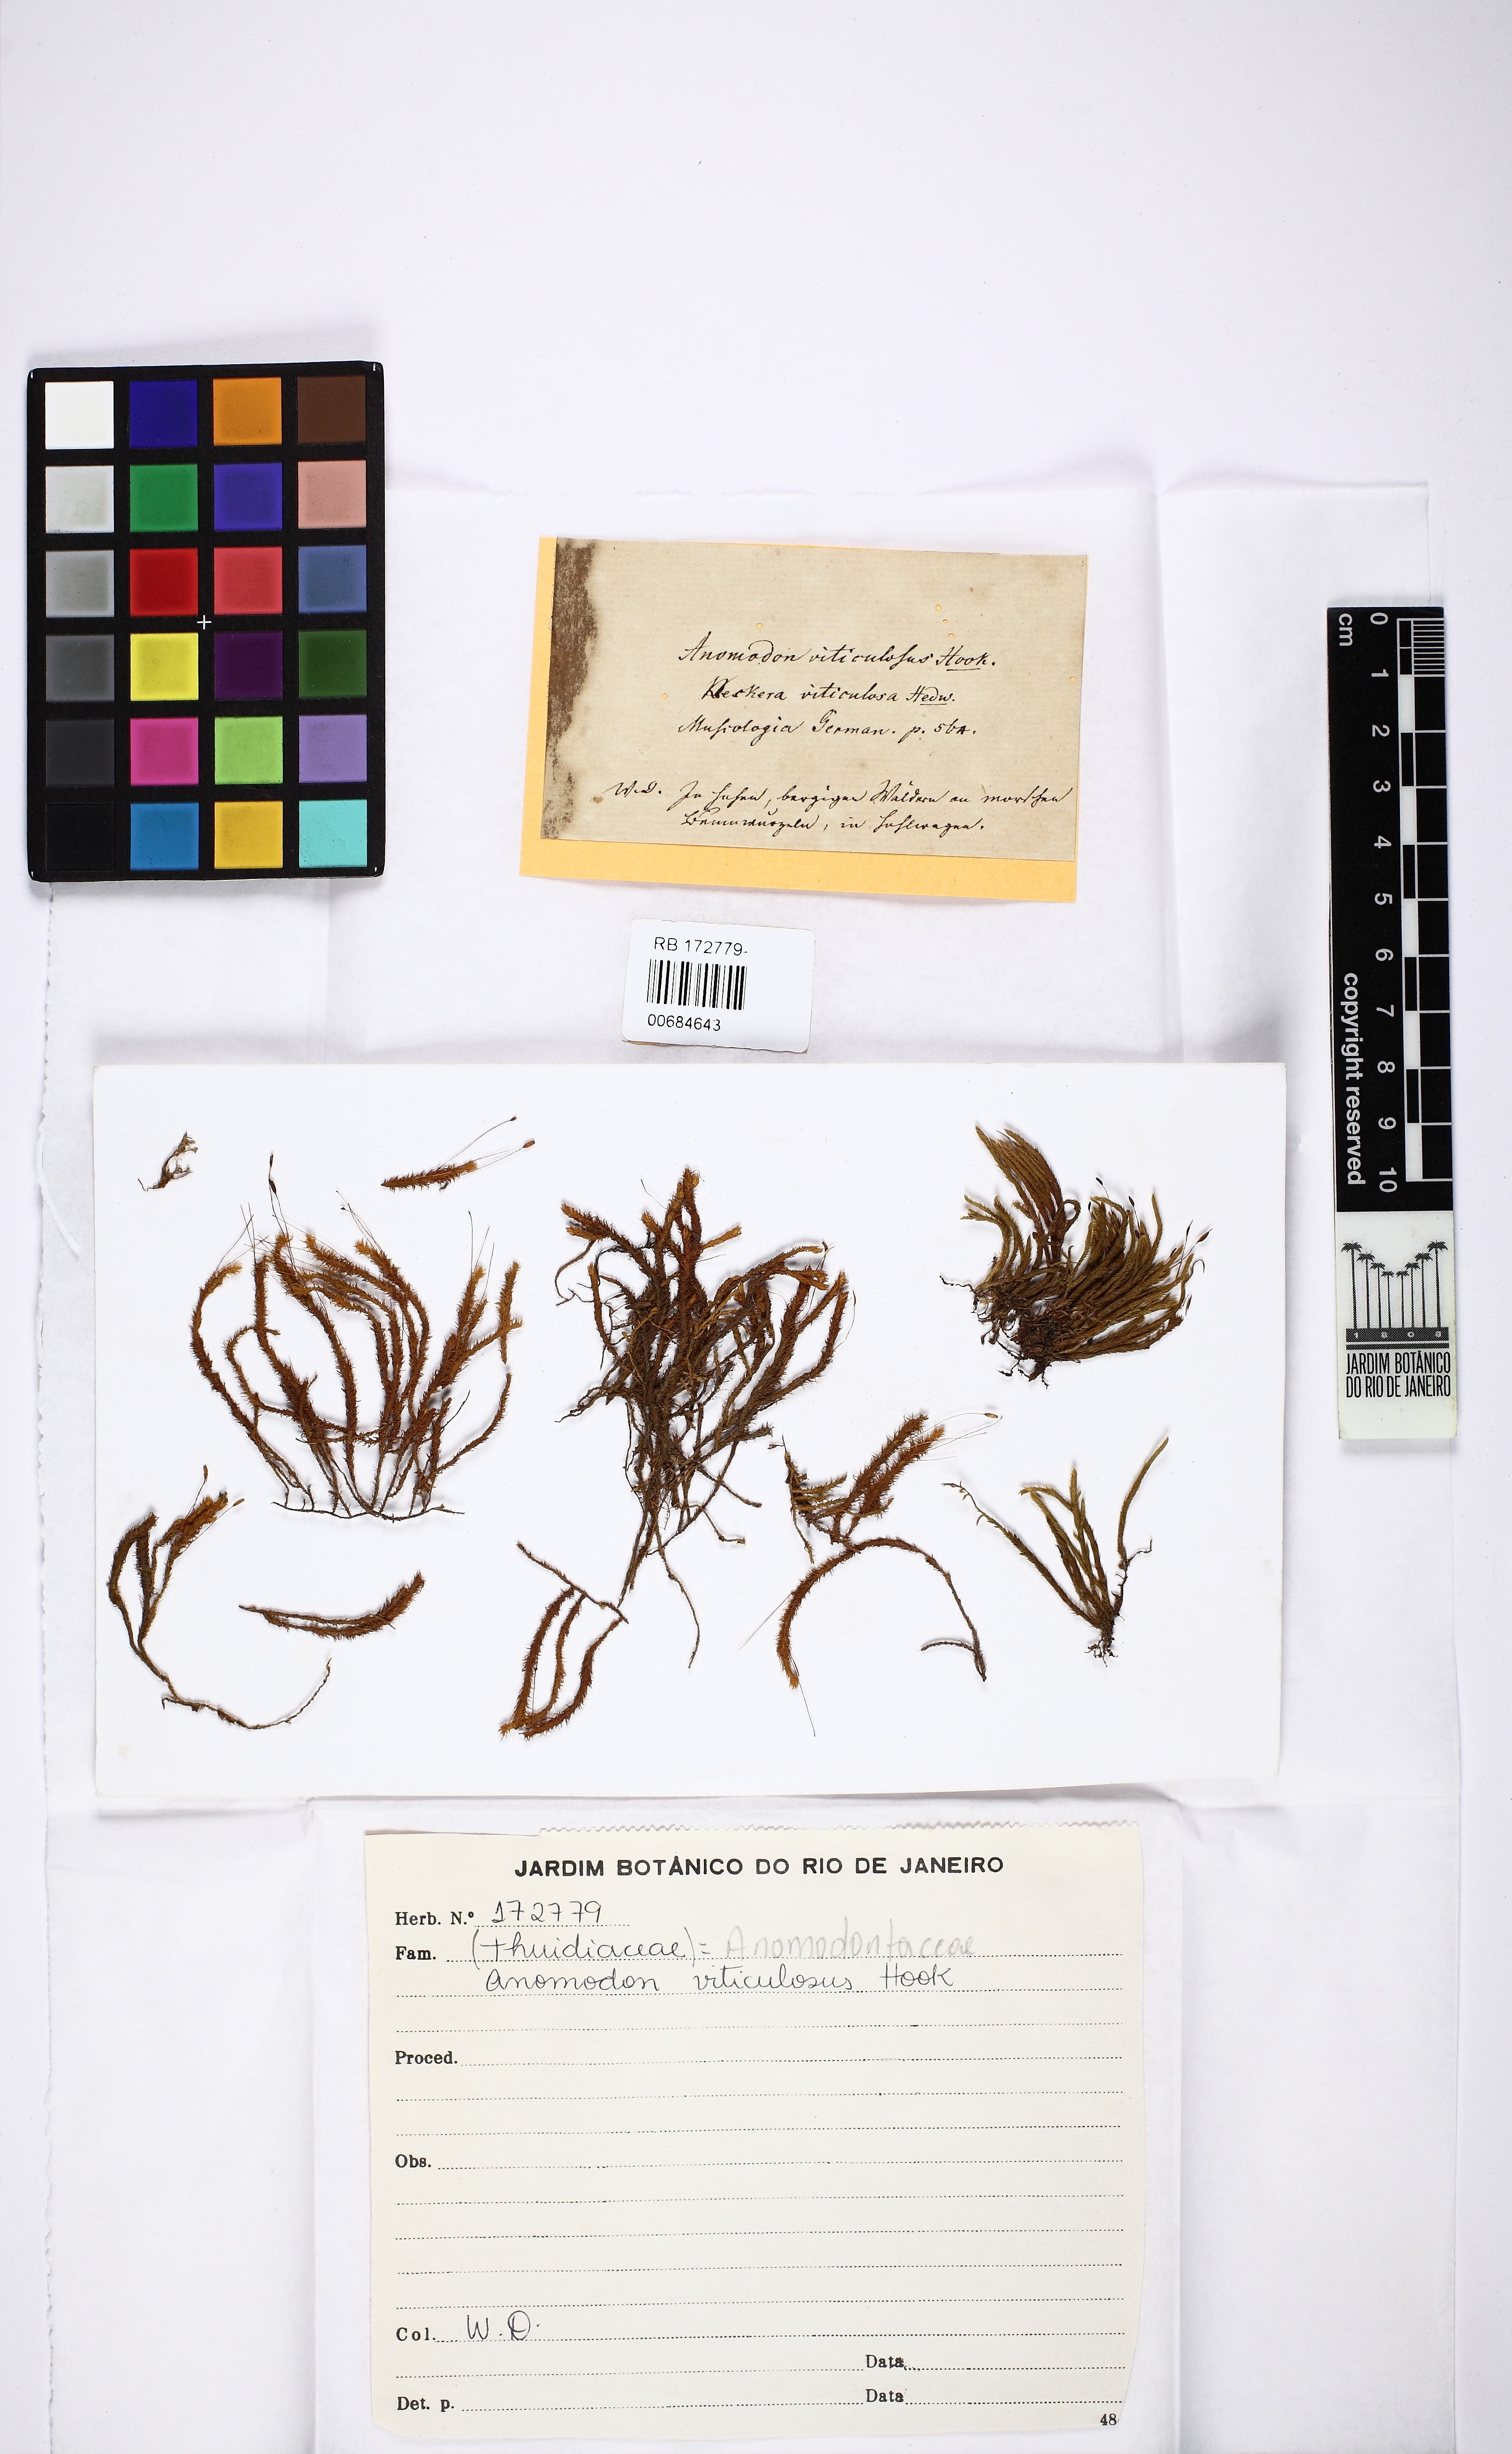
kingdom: Plantae
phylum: Bryophyta
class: Bryopsida
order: Hypnales
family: Anomodontaceae
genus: Anomodon
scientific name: Anomodon viticulosus
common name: Tall anomodon
